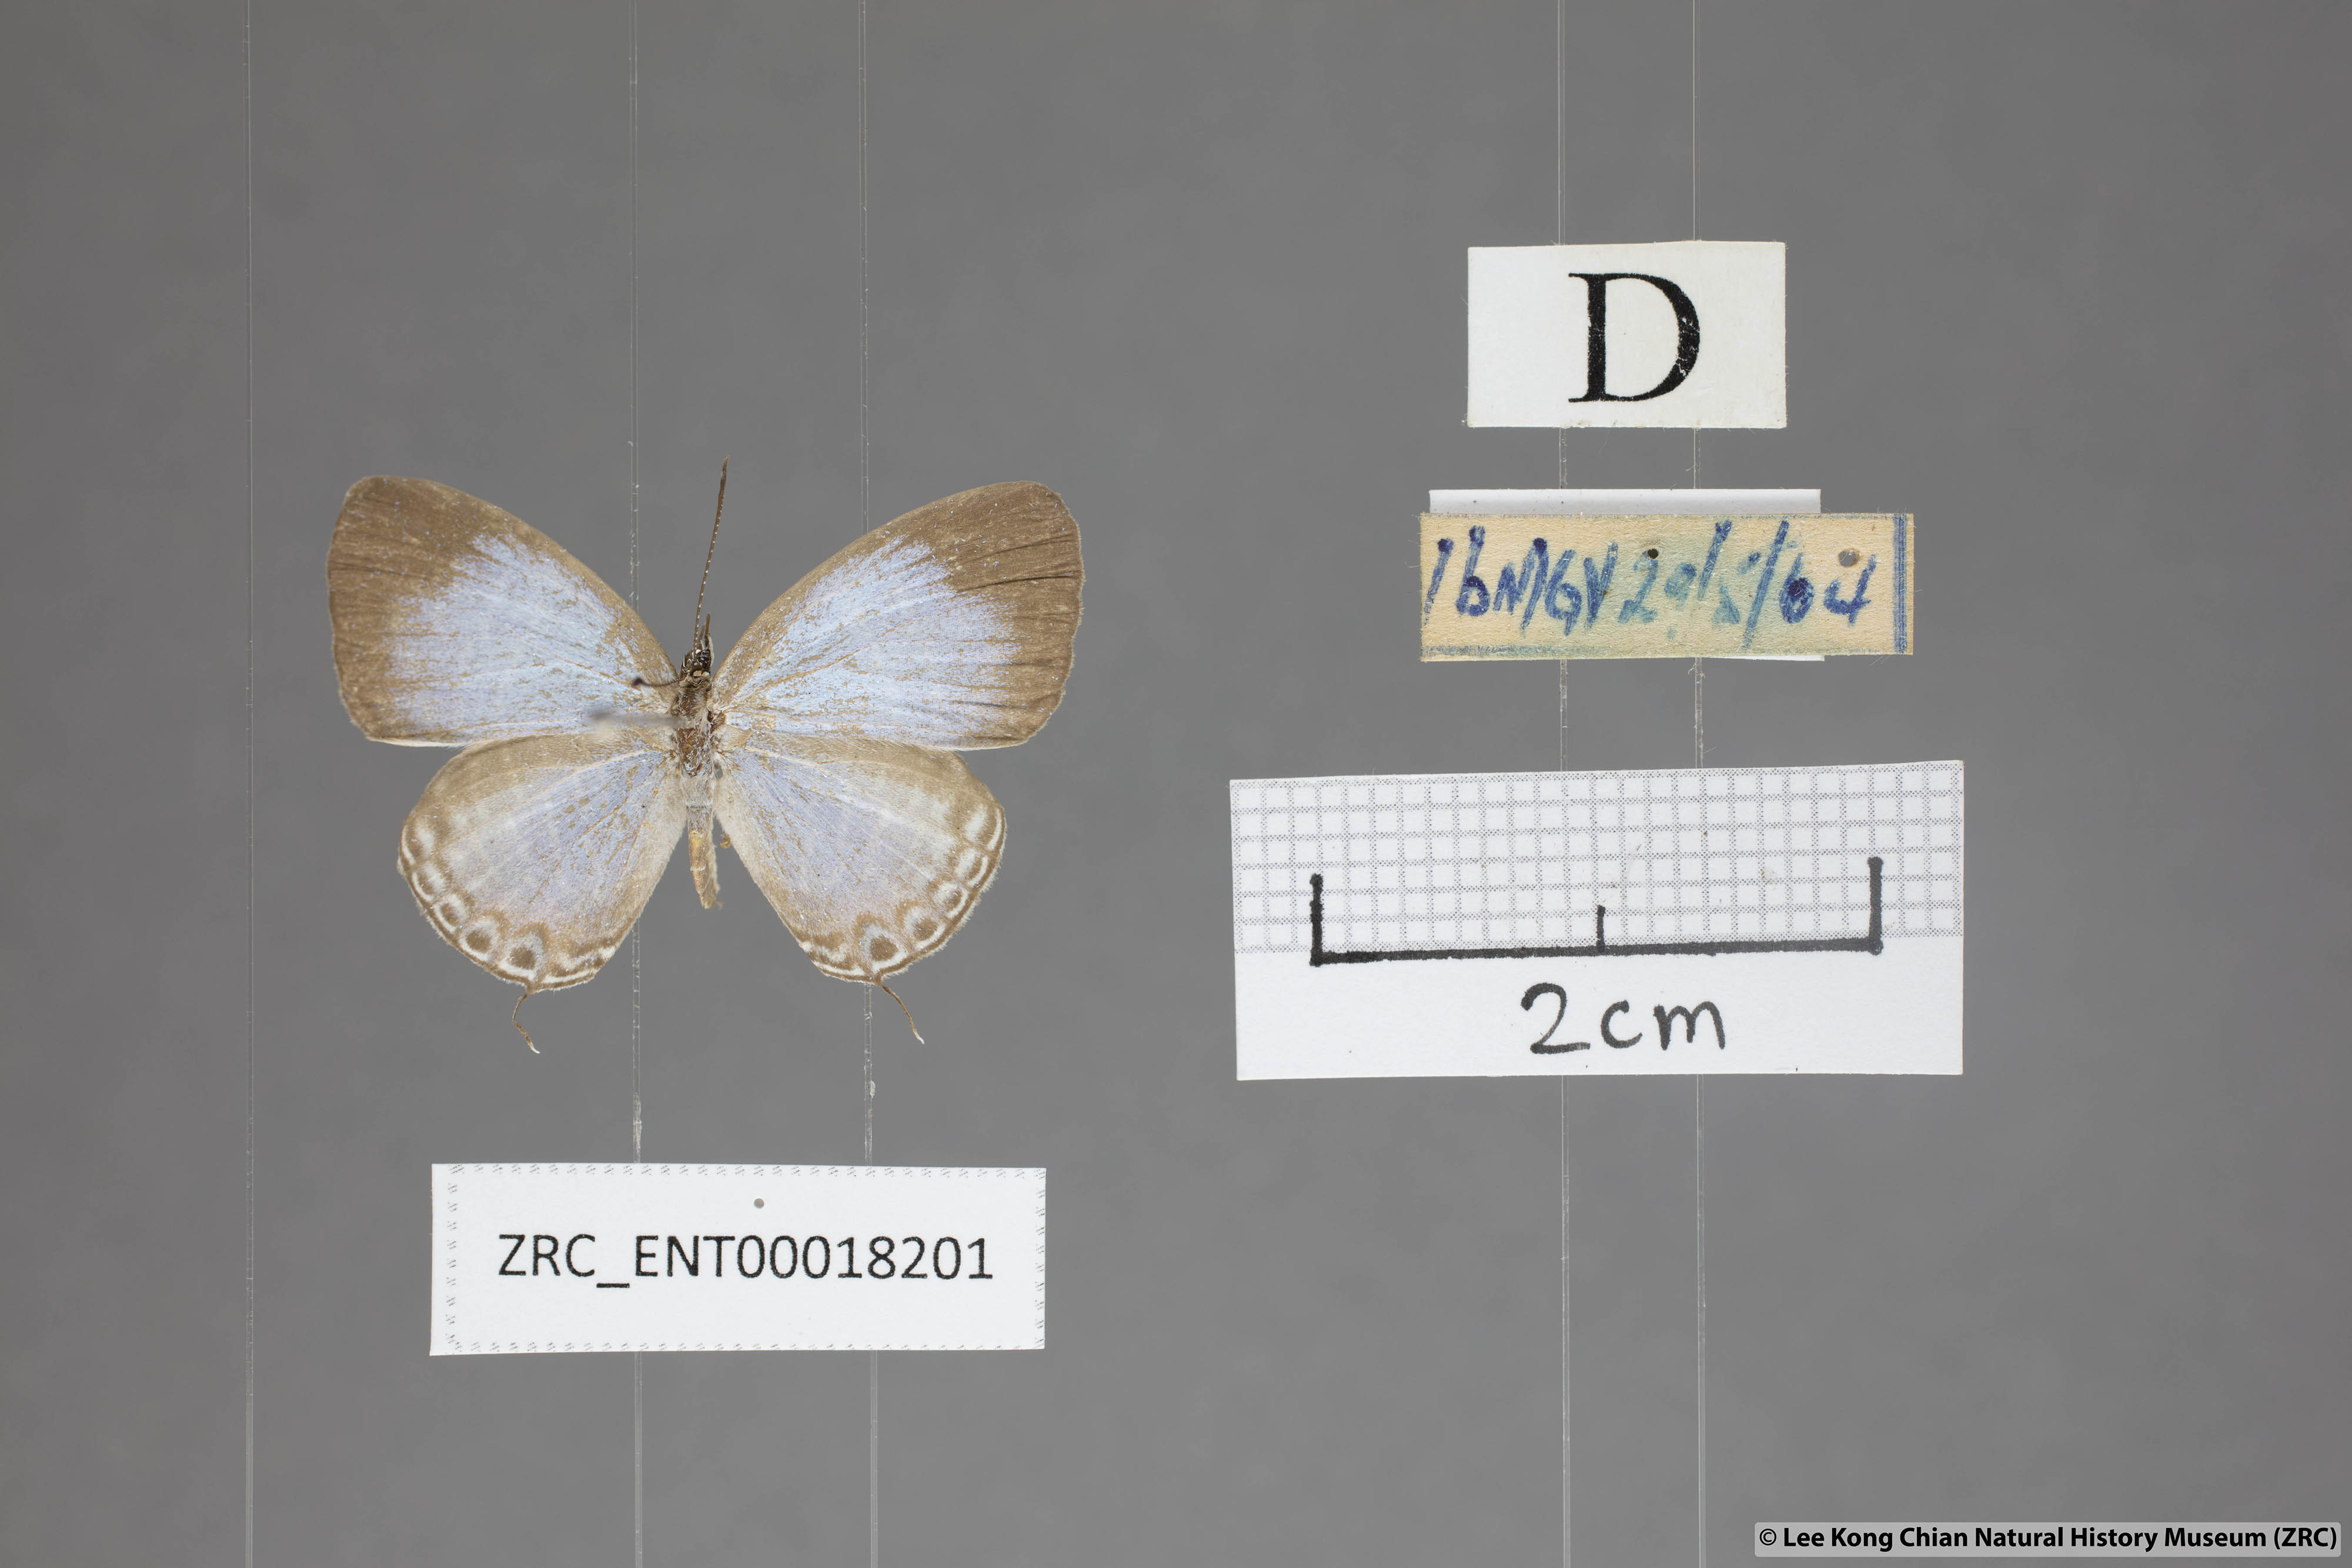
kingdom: Animalia
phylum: Arthropoda
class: Insecta
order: Lepidoptera
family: Lycaenidae
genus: Jamides
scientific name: Jamides talinga
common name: Lesser cerulean
